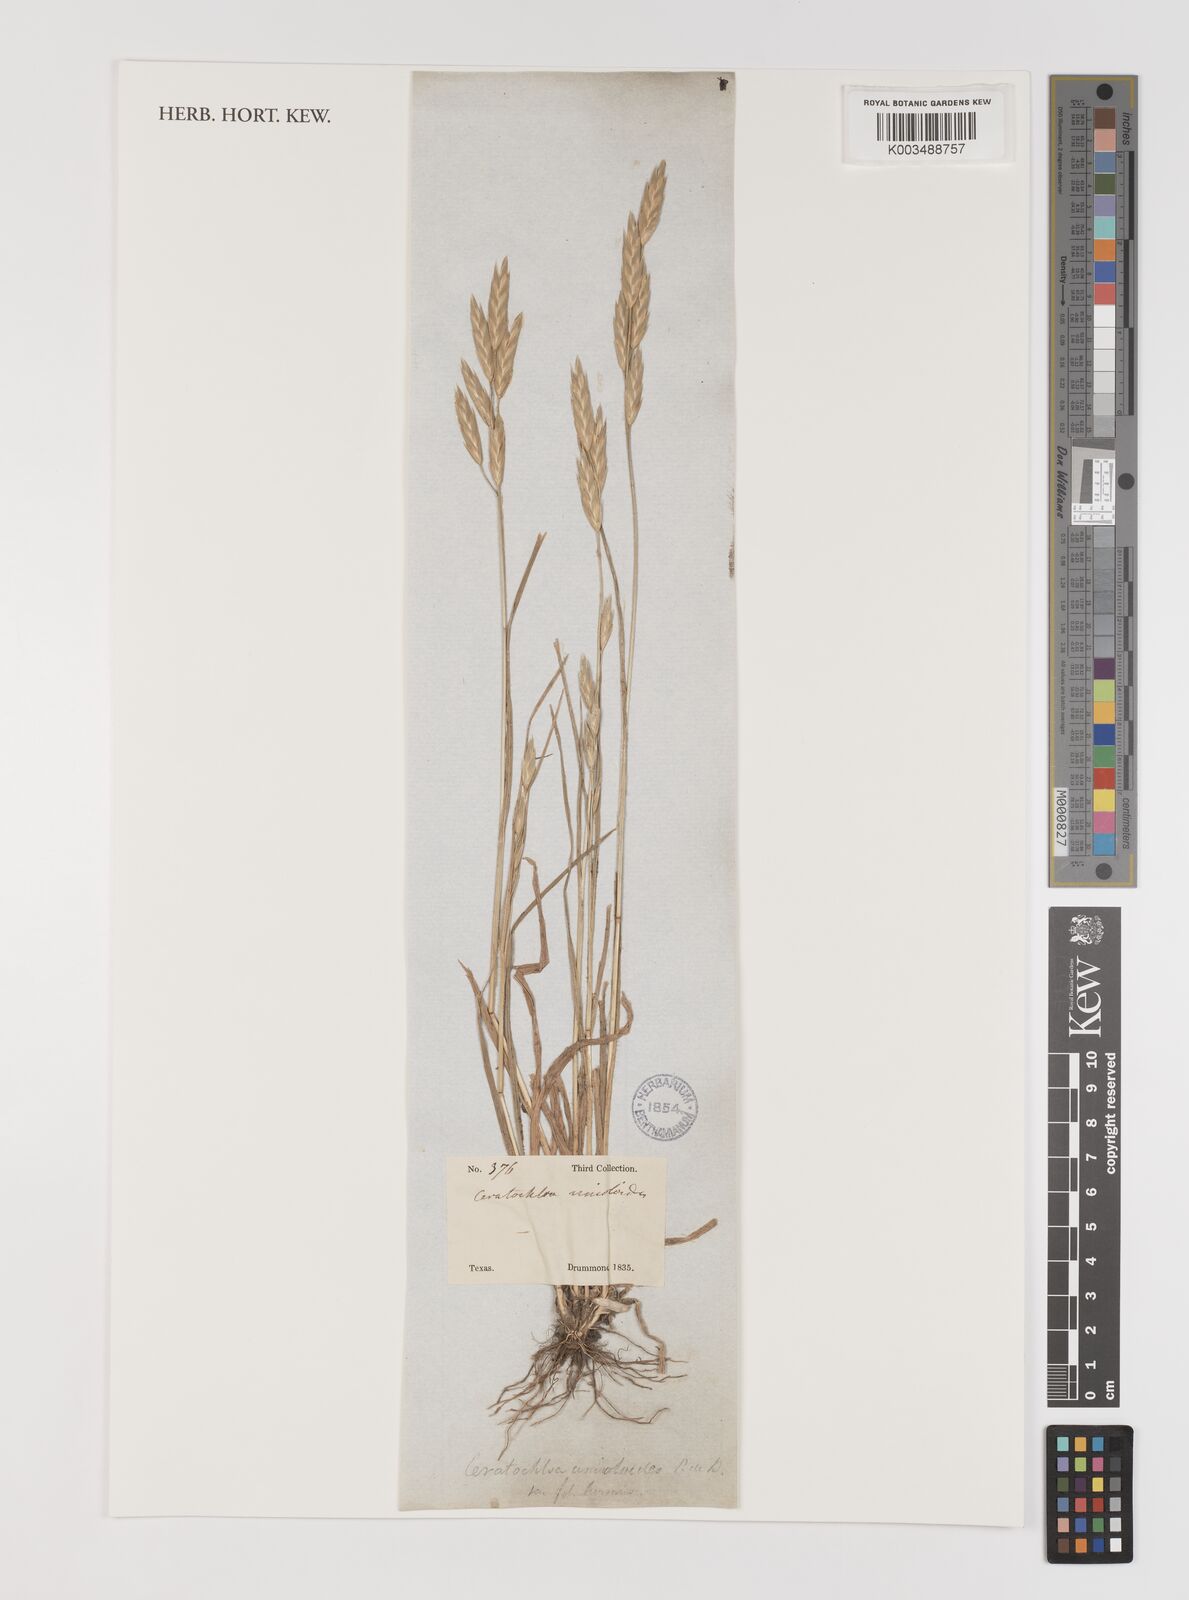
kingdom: Plantae
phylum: Tracheophyta
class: Liliopsida
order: Poales
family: Poaceae
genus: Bromus
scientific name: Bromus
